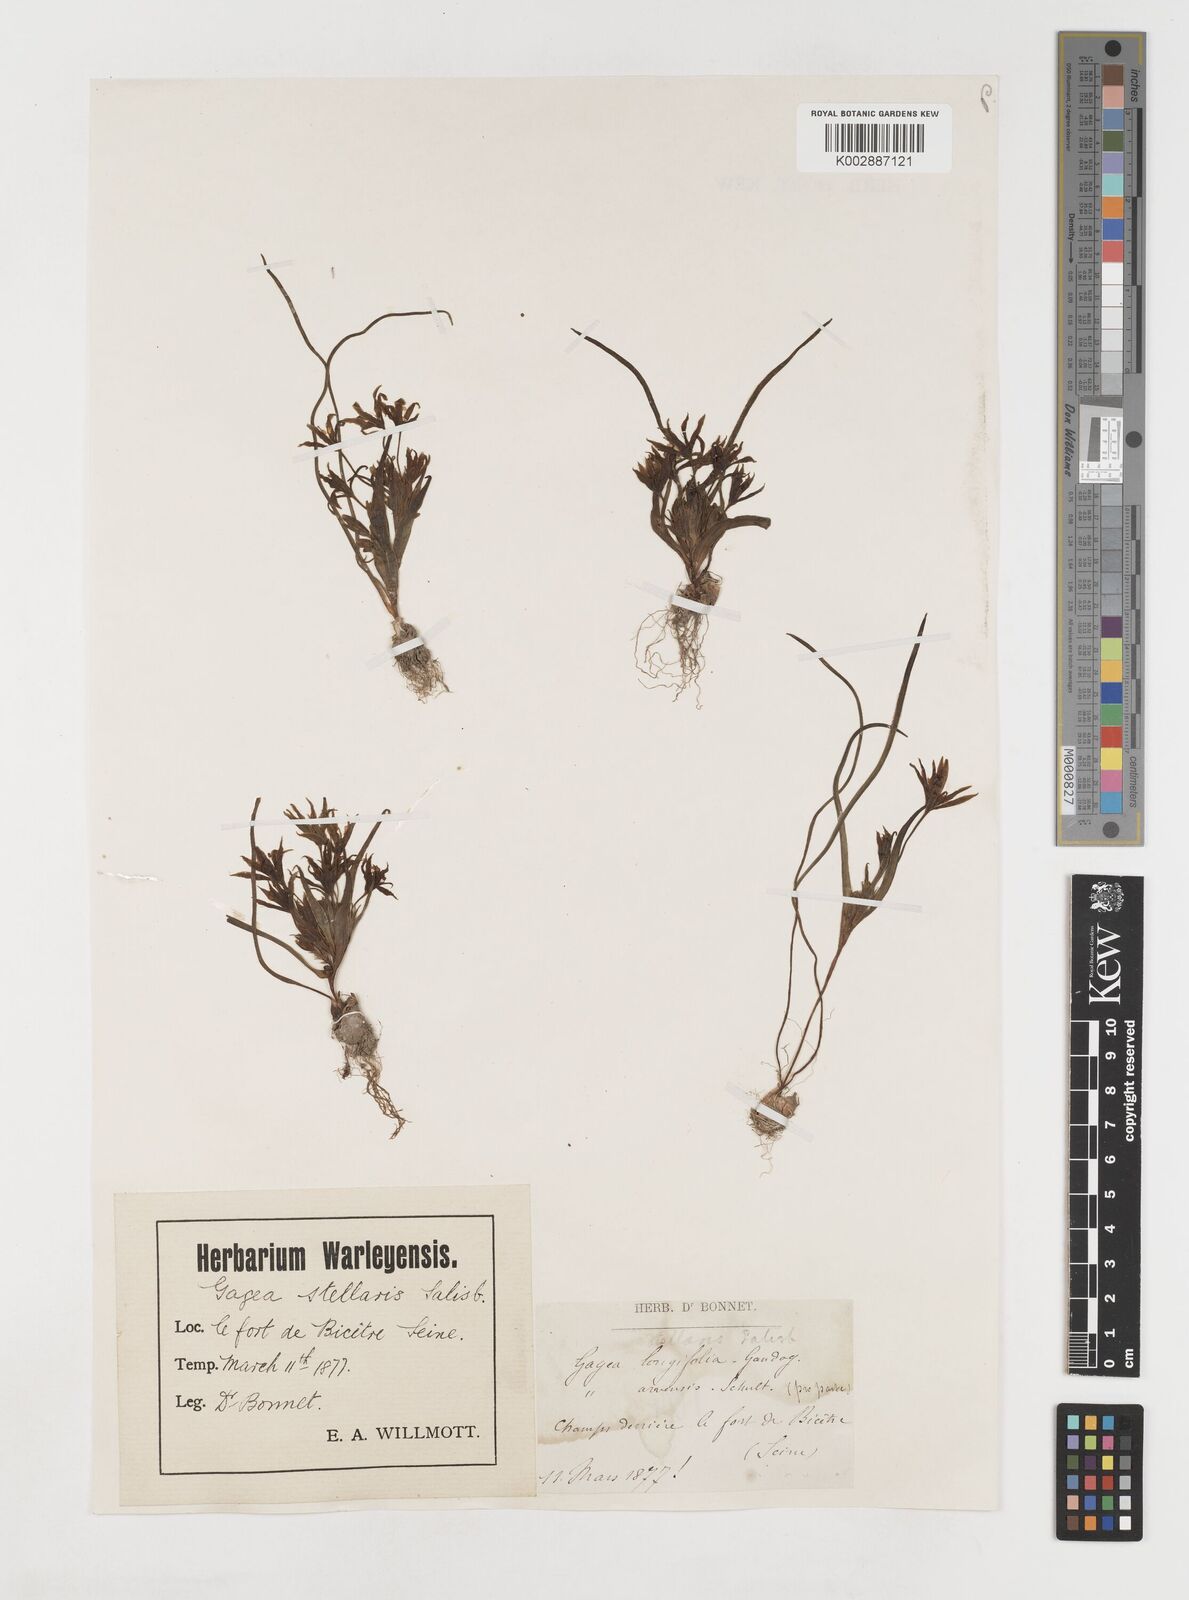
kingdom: Plantae
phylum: Tracheophyta
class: Liliopsida
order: Liliales
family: Liliaceae
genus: Gagea
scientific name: Gagea villosa
